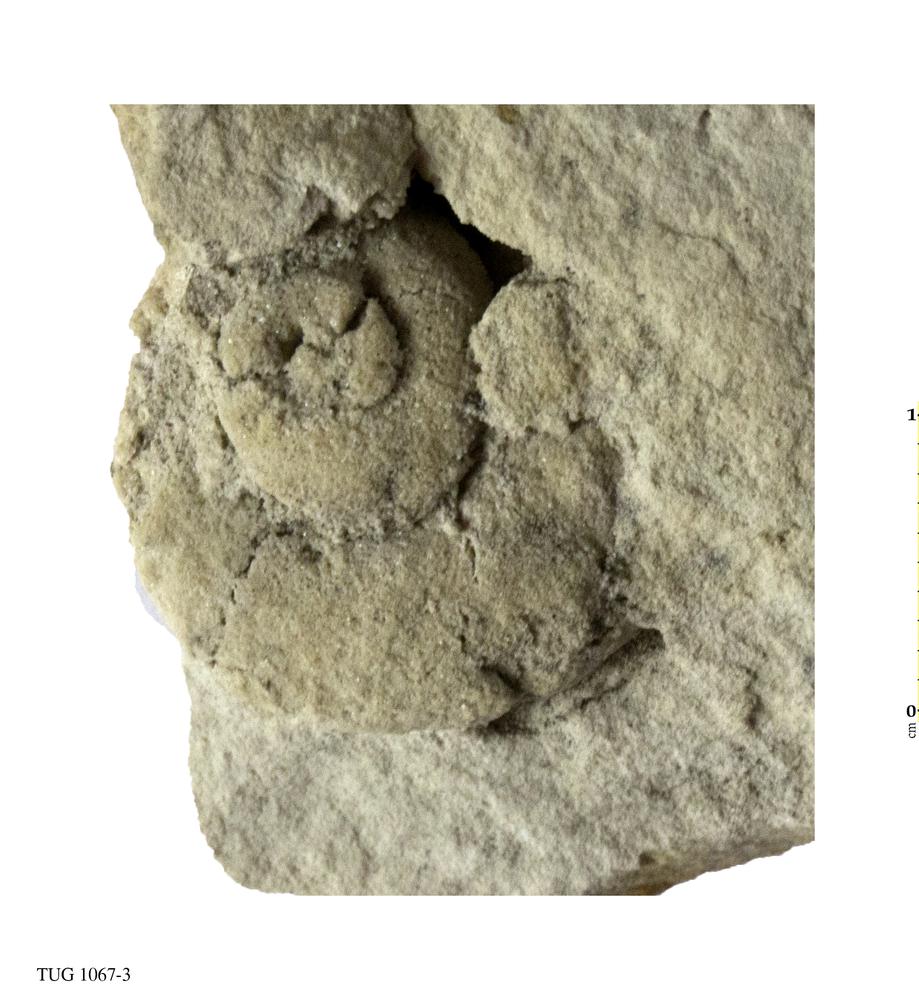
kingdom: Animalia
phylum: Mollusca
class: Gastropoda
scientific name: Gastropoda
